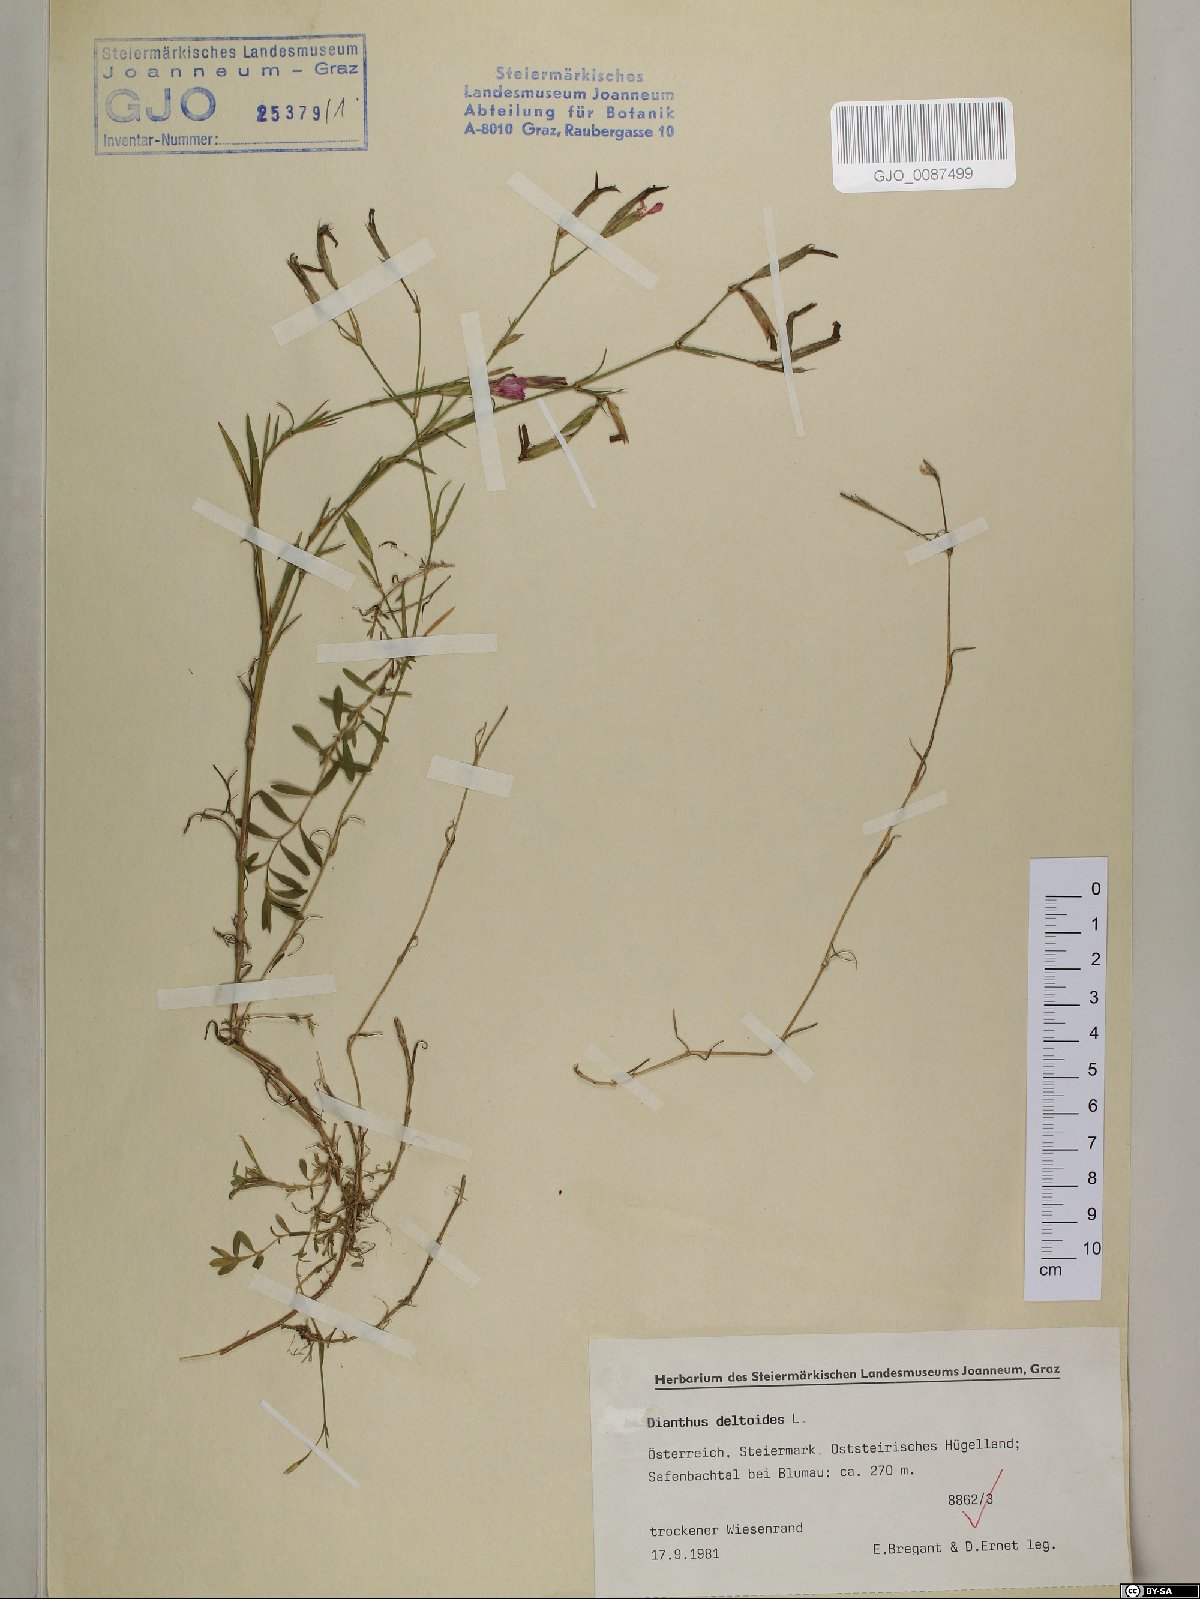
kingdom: Plantae
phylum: Tracheophyta
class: Magnoliopsida
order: Caryophyllales
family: Caryophyllaceae
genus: Dianthus
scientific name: Dianthus deltoides
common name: Maiden pink
